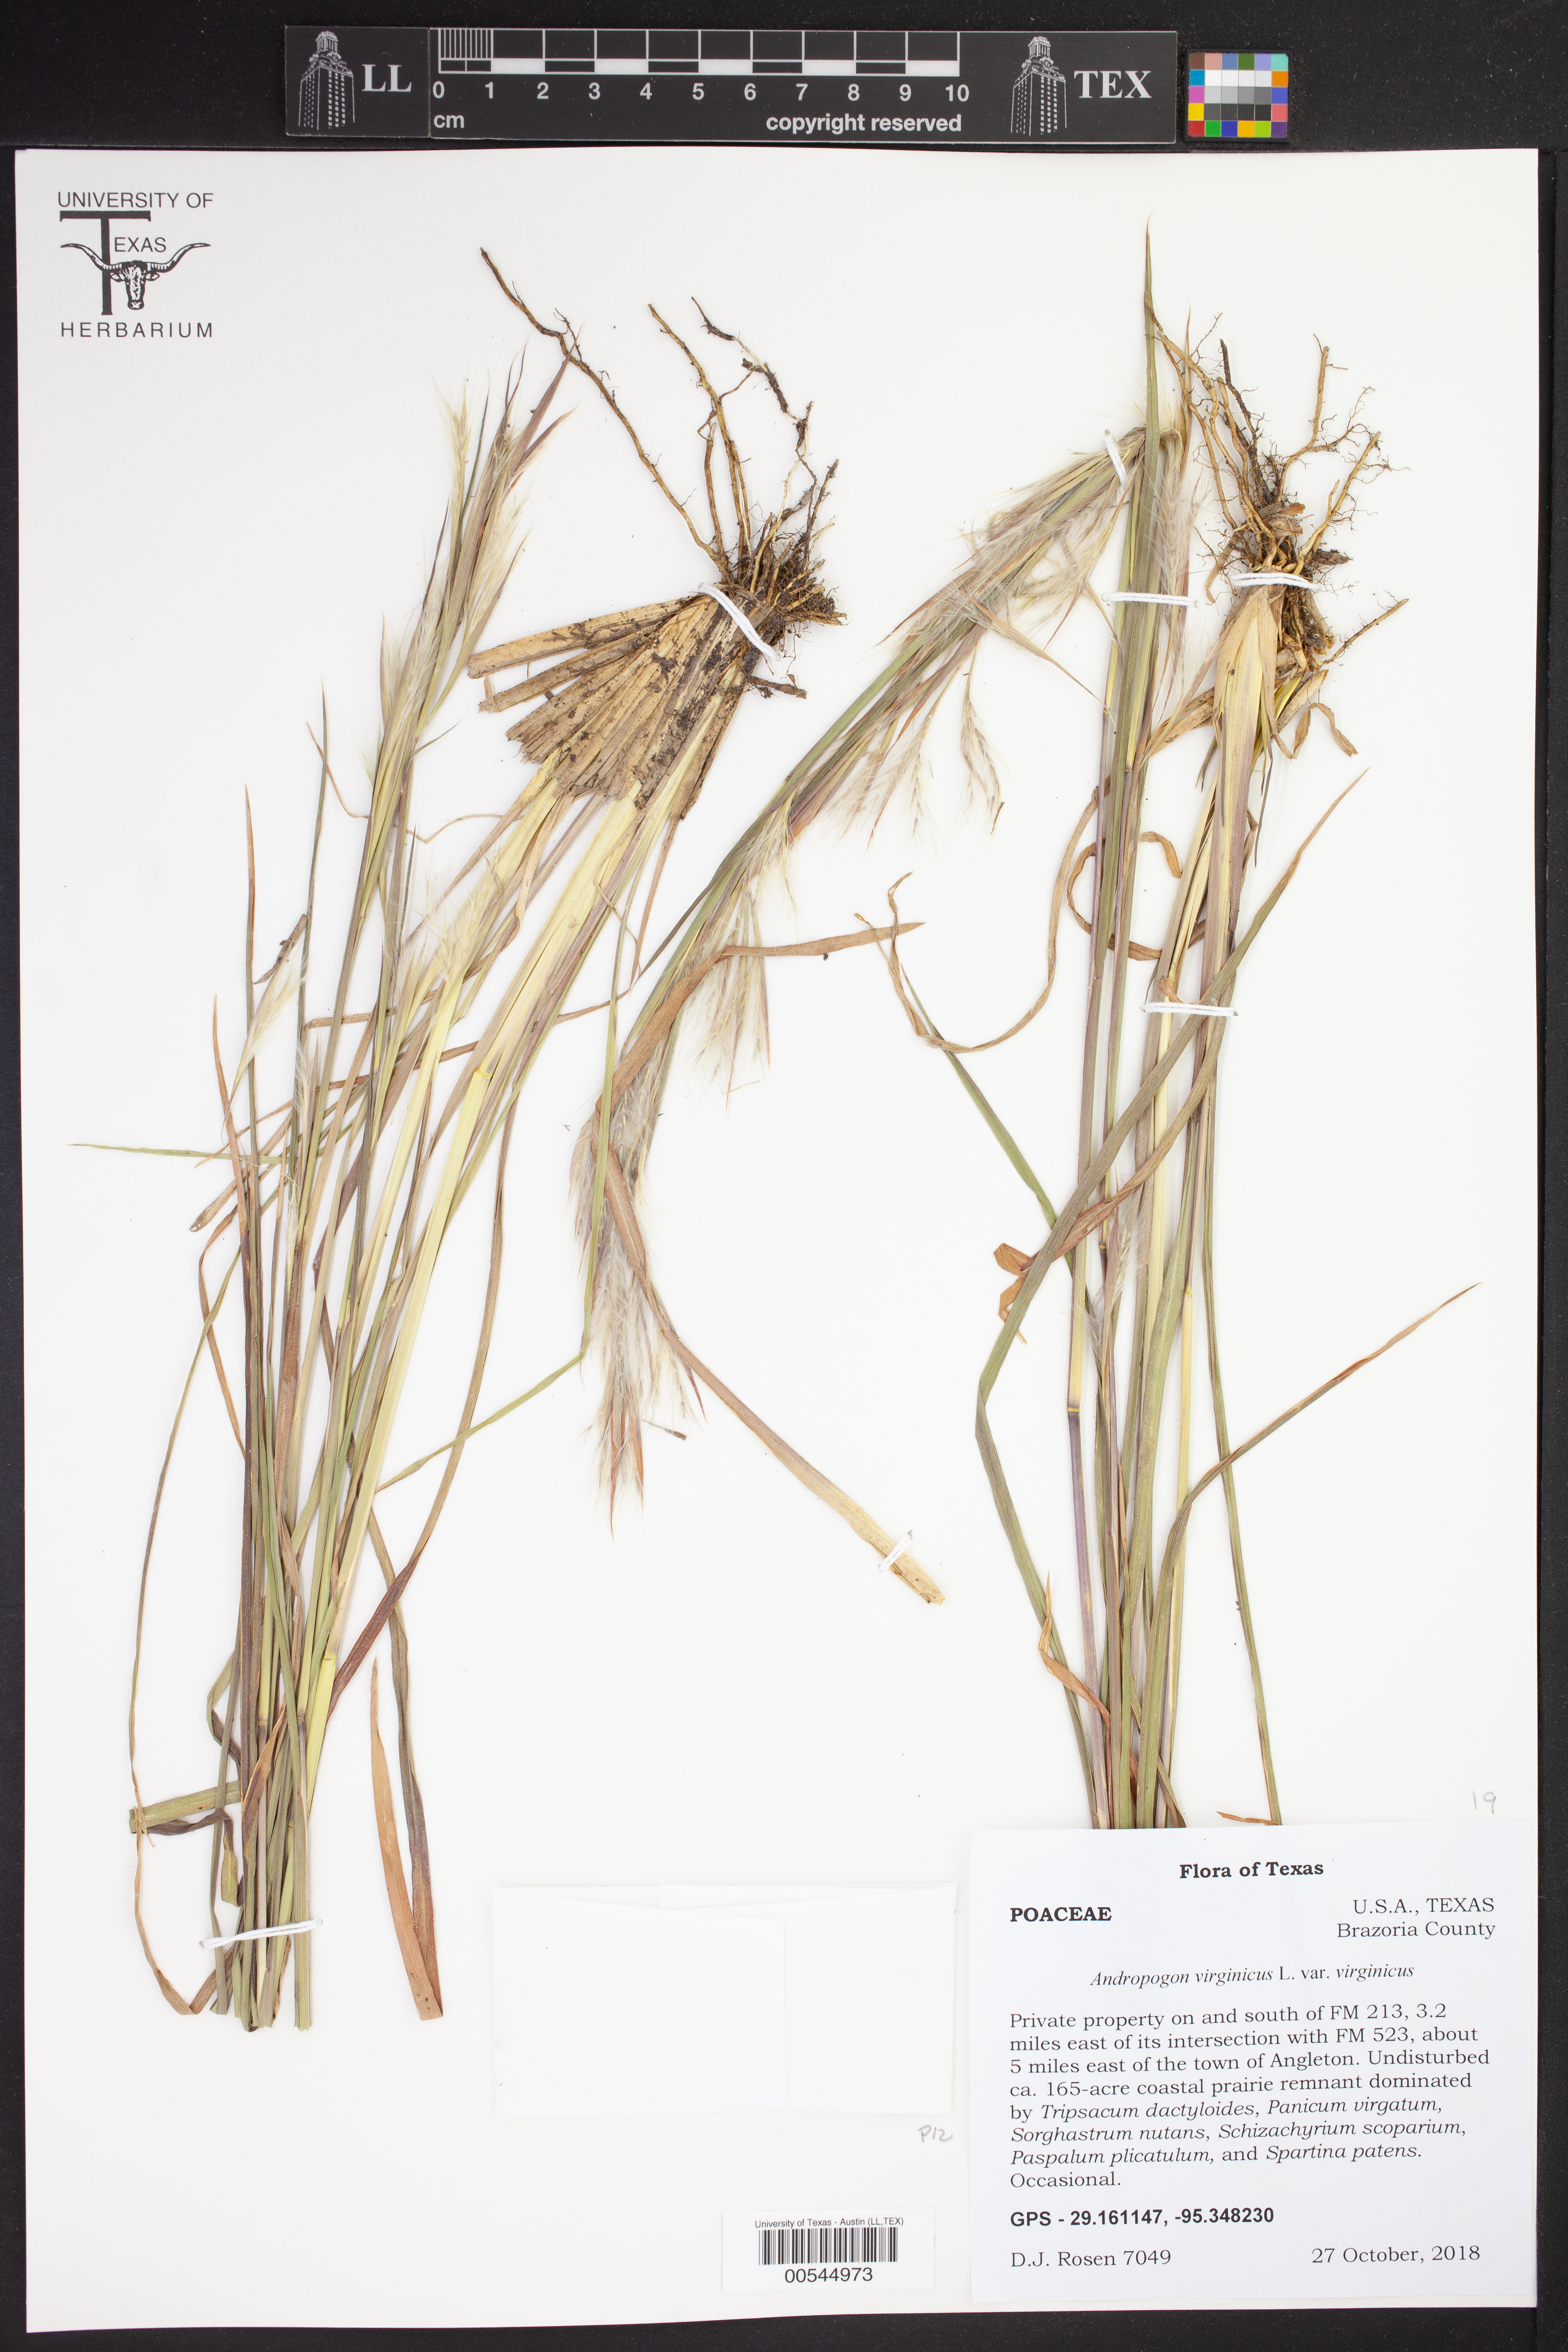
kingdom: Plantae
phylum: Tracheophyta
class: Liliopsida
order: Poales
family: Poaceae
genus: Andropogon
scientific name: Andropogon virginicus
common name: Broomsedge bluestem
